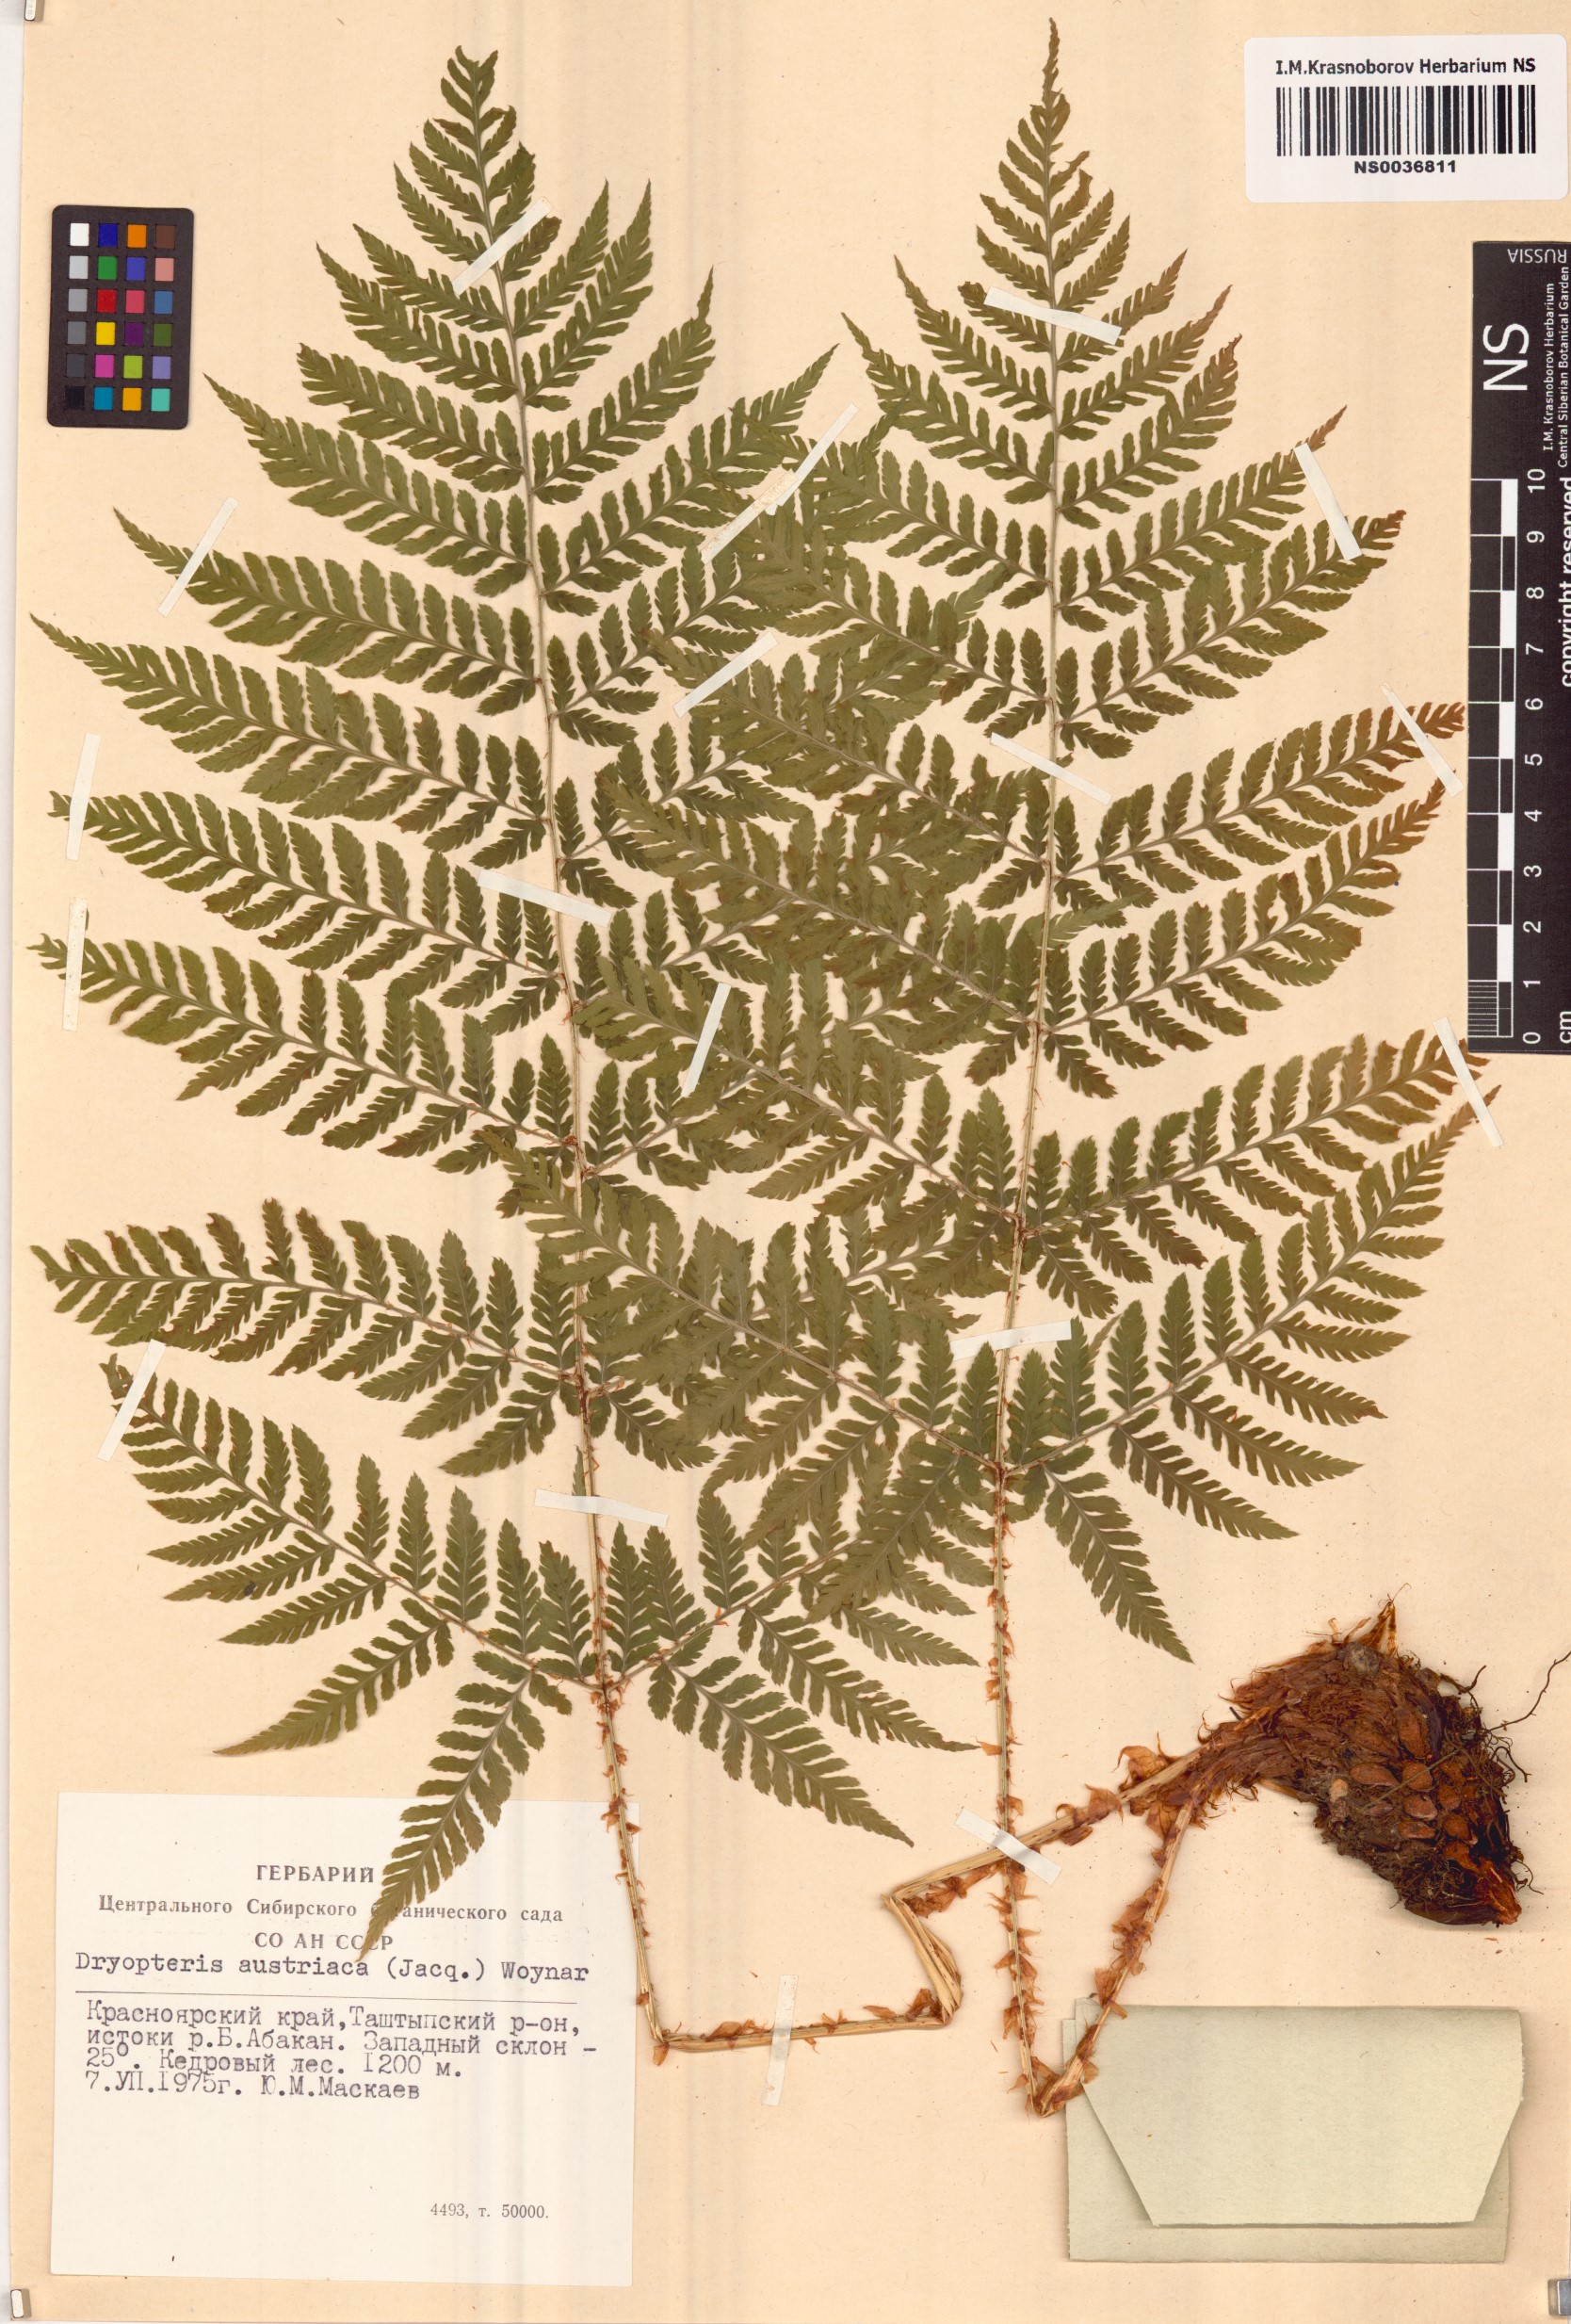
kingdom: Plantae
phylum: Tracheophyta
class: Polypodiopsida
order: Polypodiales
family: Dryopteridaceae
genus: Dryopteris
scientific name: Dryopteris dilatata
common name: Broad buckler-fern
